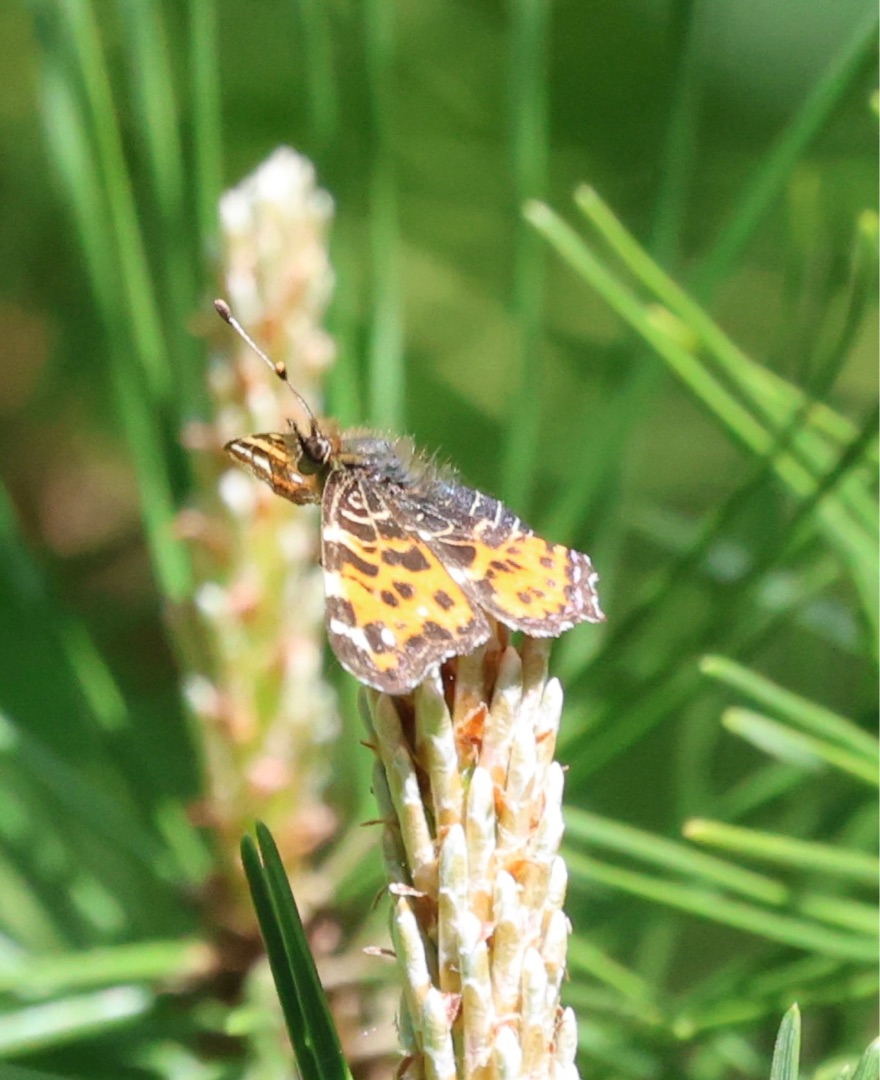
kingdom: Animalia
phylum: Arthropoda
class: Insecta
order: Lepidoptera
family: Nymphalidae
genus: Araschnia
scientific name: Araschnia levana
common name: Nældesommerfugl
